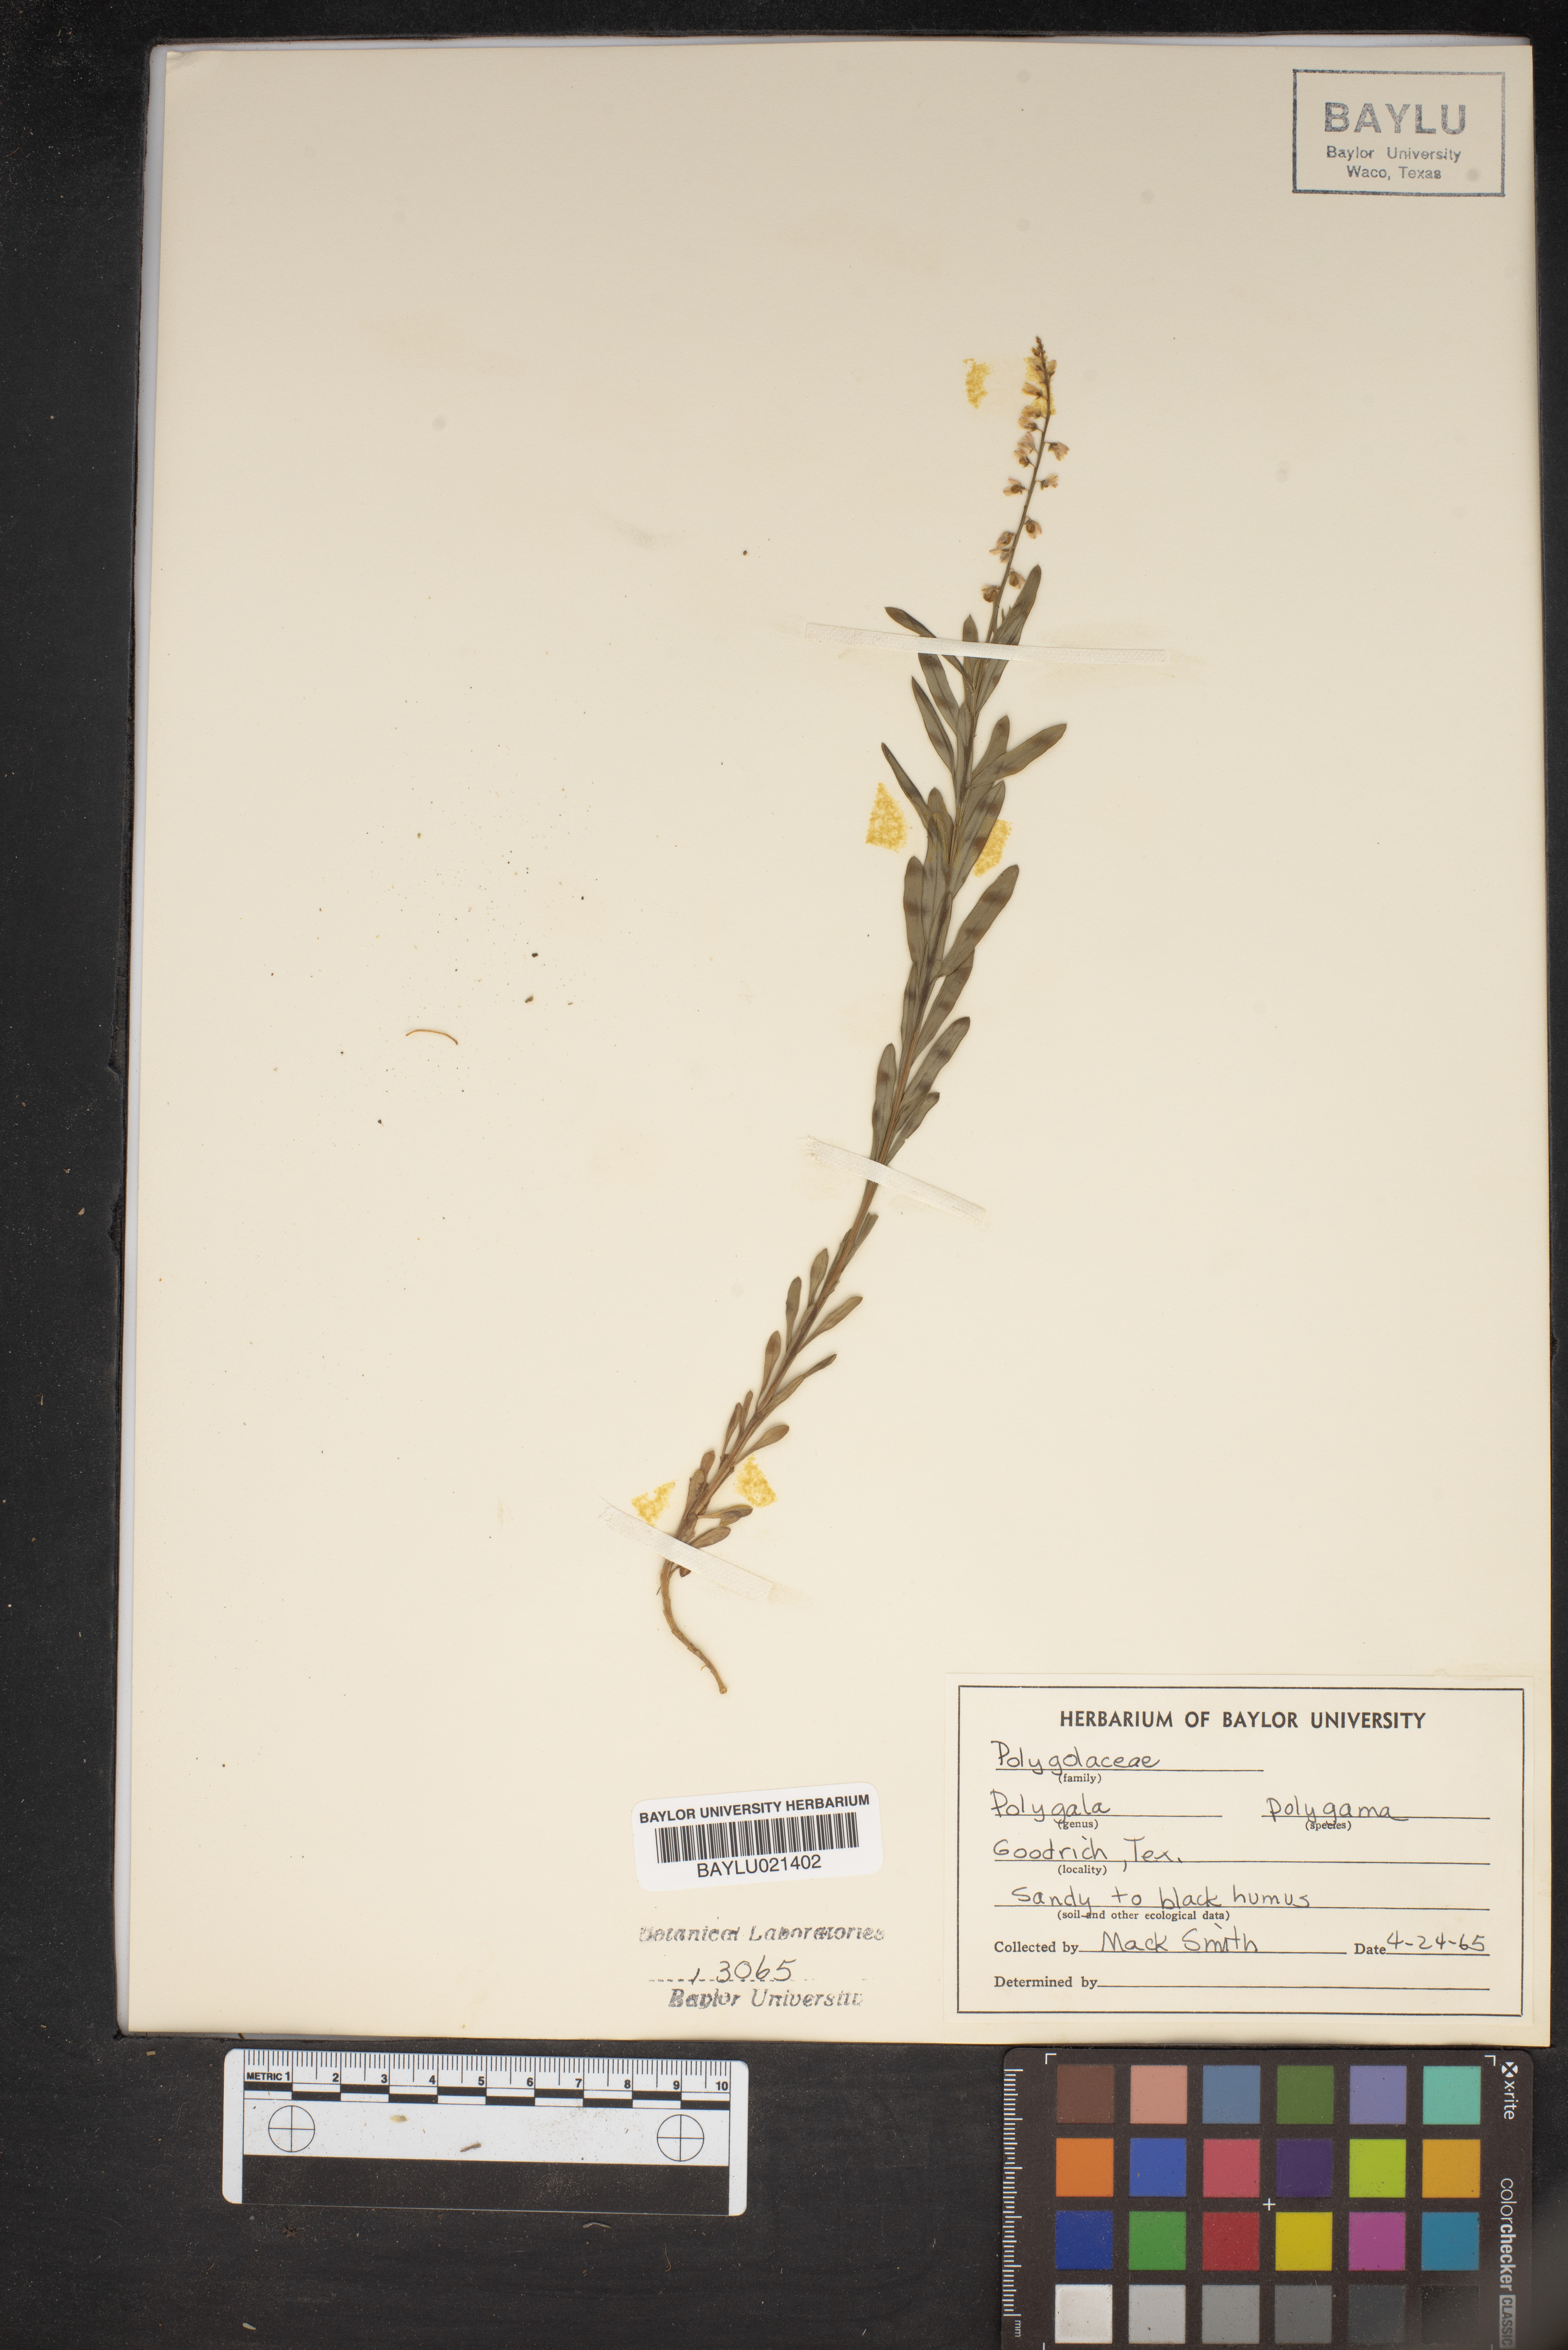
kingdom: Plantae
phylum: Tracheophyta
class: Magnoliopsida
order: Fabales
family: Polygalaceae
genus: Polygala
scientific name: Polygala polygama
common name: Bitter milkwort
